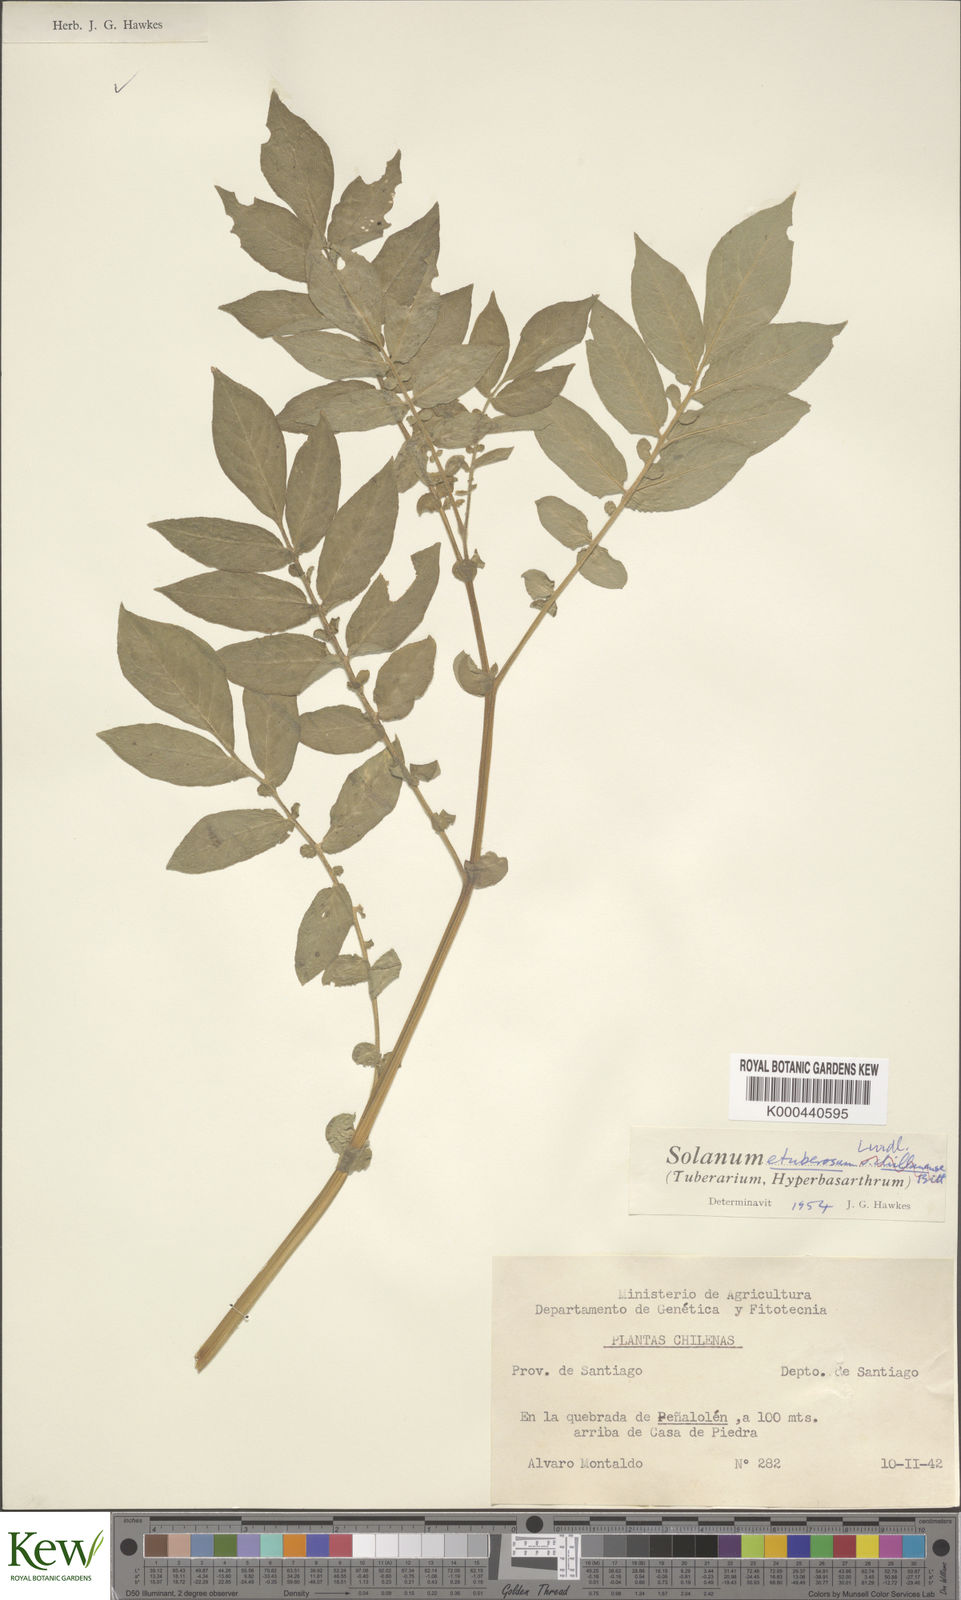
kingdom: Plantae
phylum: Tracheophyta
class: Magnoliopsida
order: Solanales
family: Solanaceae
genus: Solanum
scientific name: Solanum etuberosum
